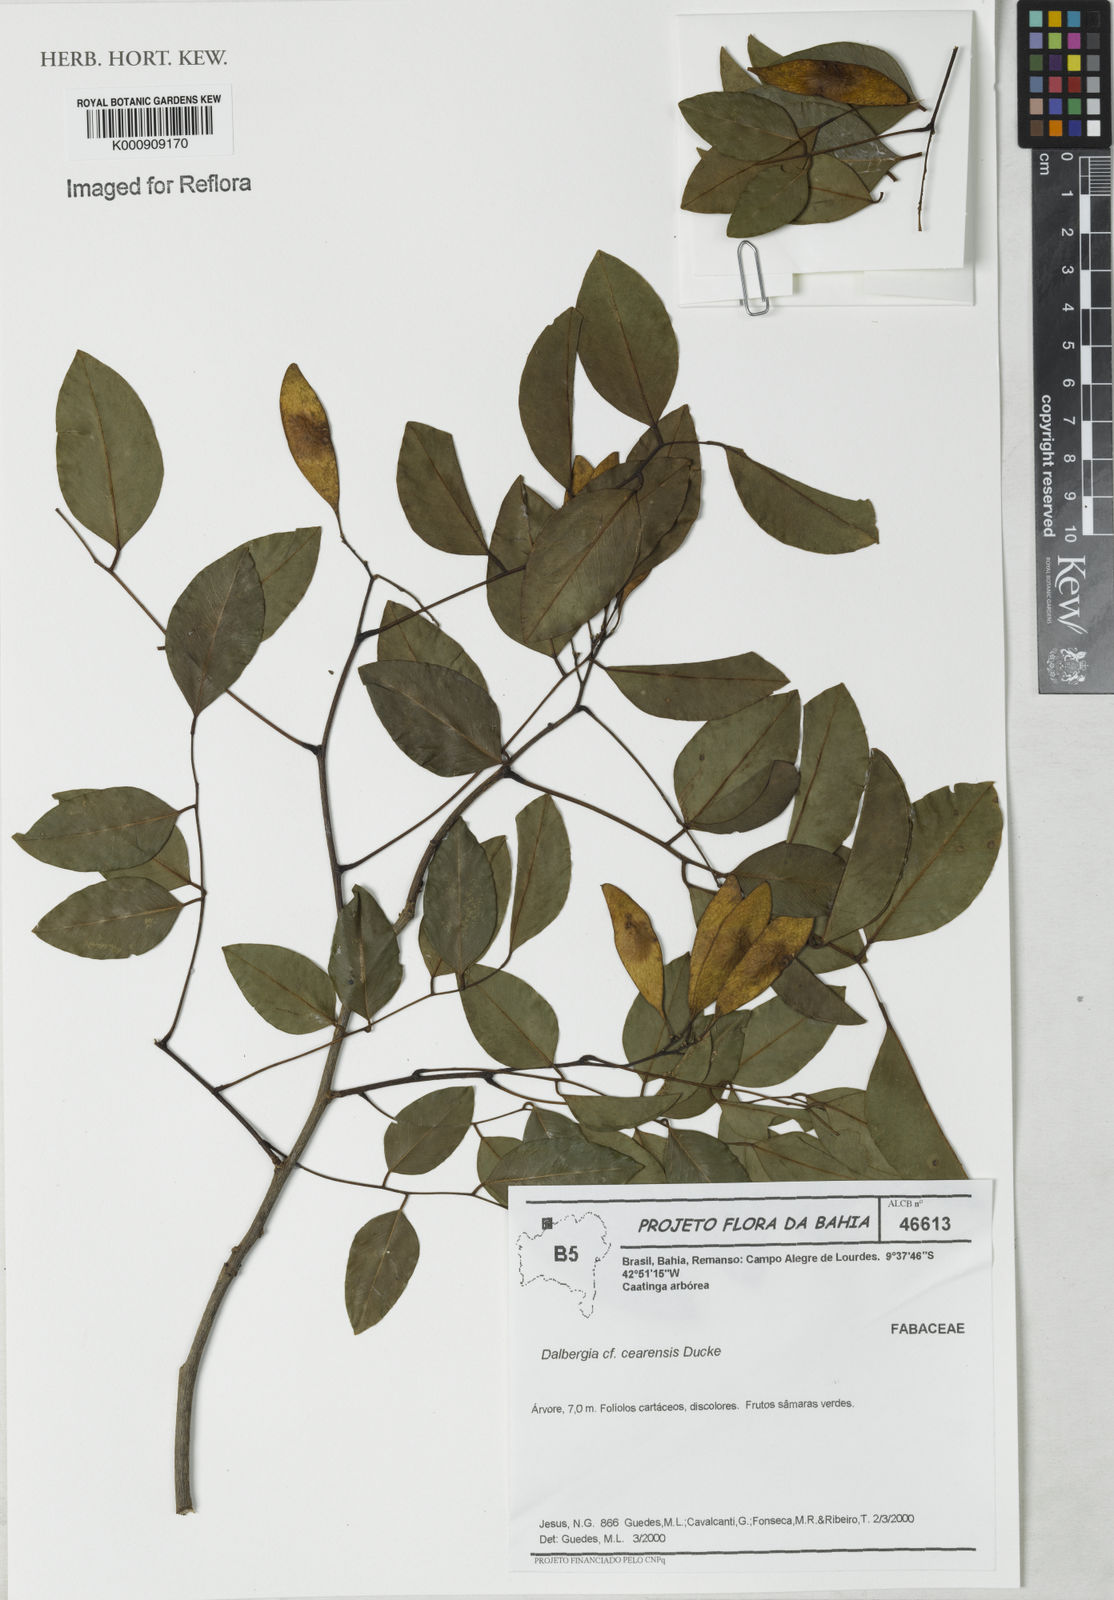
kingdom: Plantae
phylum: Tracheophyta
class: Magnoliopsida
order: Fabales
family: Fabaceae
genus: Dalbergia
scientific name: Dalbergia inundata
